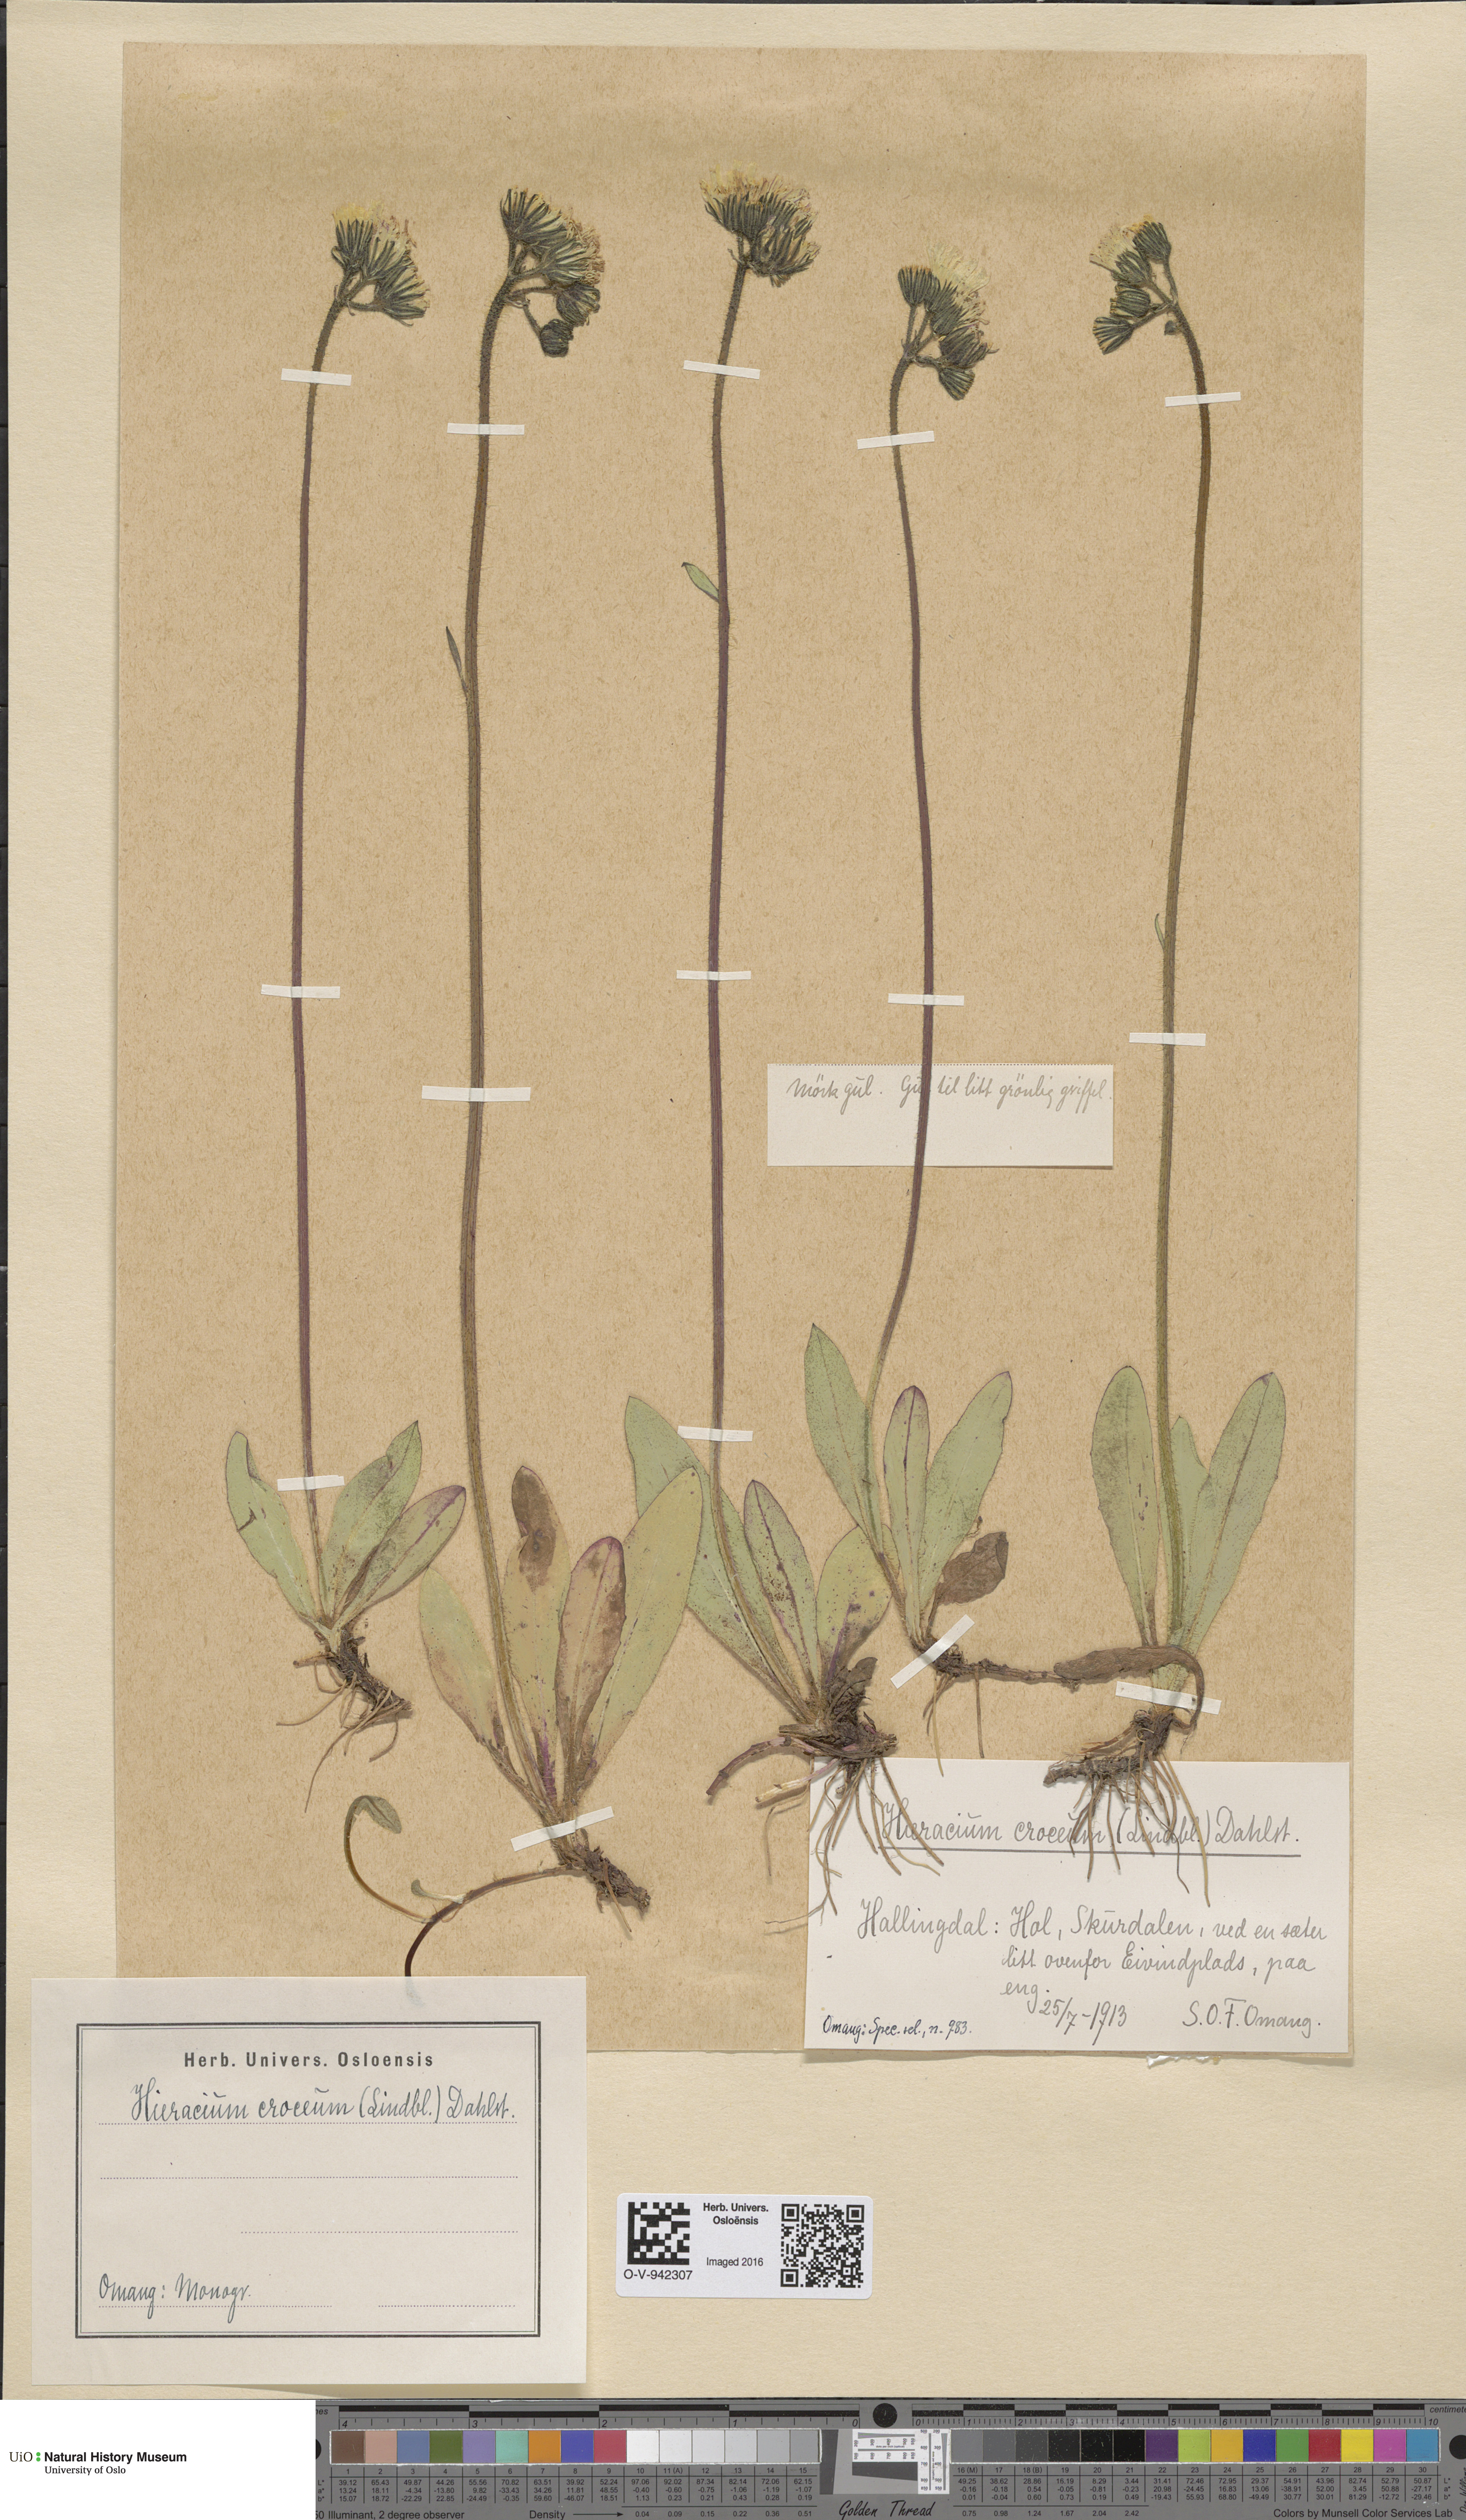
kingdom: Plantae
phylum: Tracheophyta
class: Magnoliopsida
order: Asterales
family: Asteraceae
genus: Pilosella
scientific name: Pilosella fuscoatra
